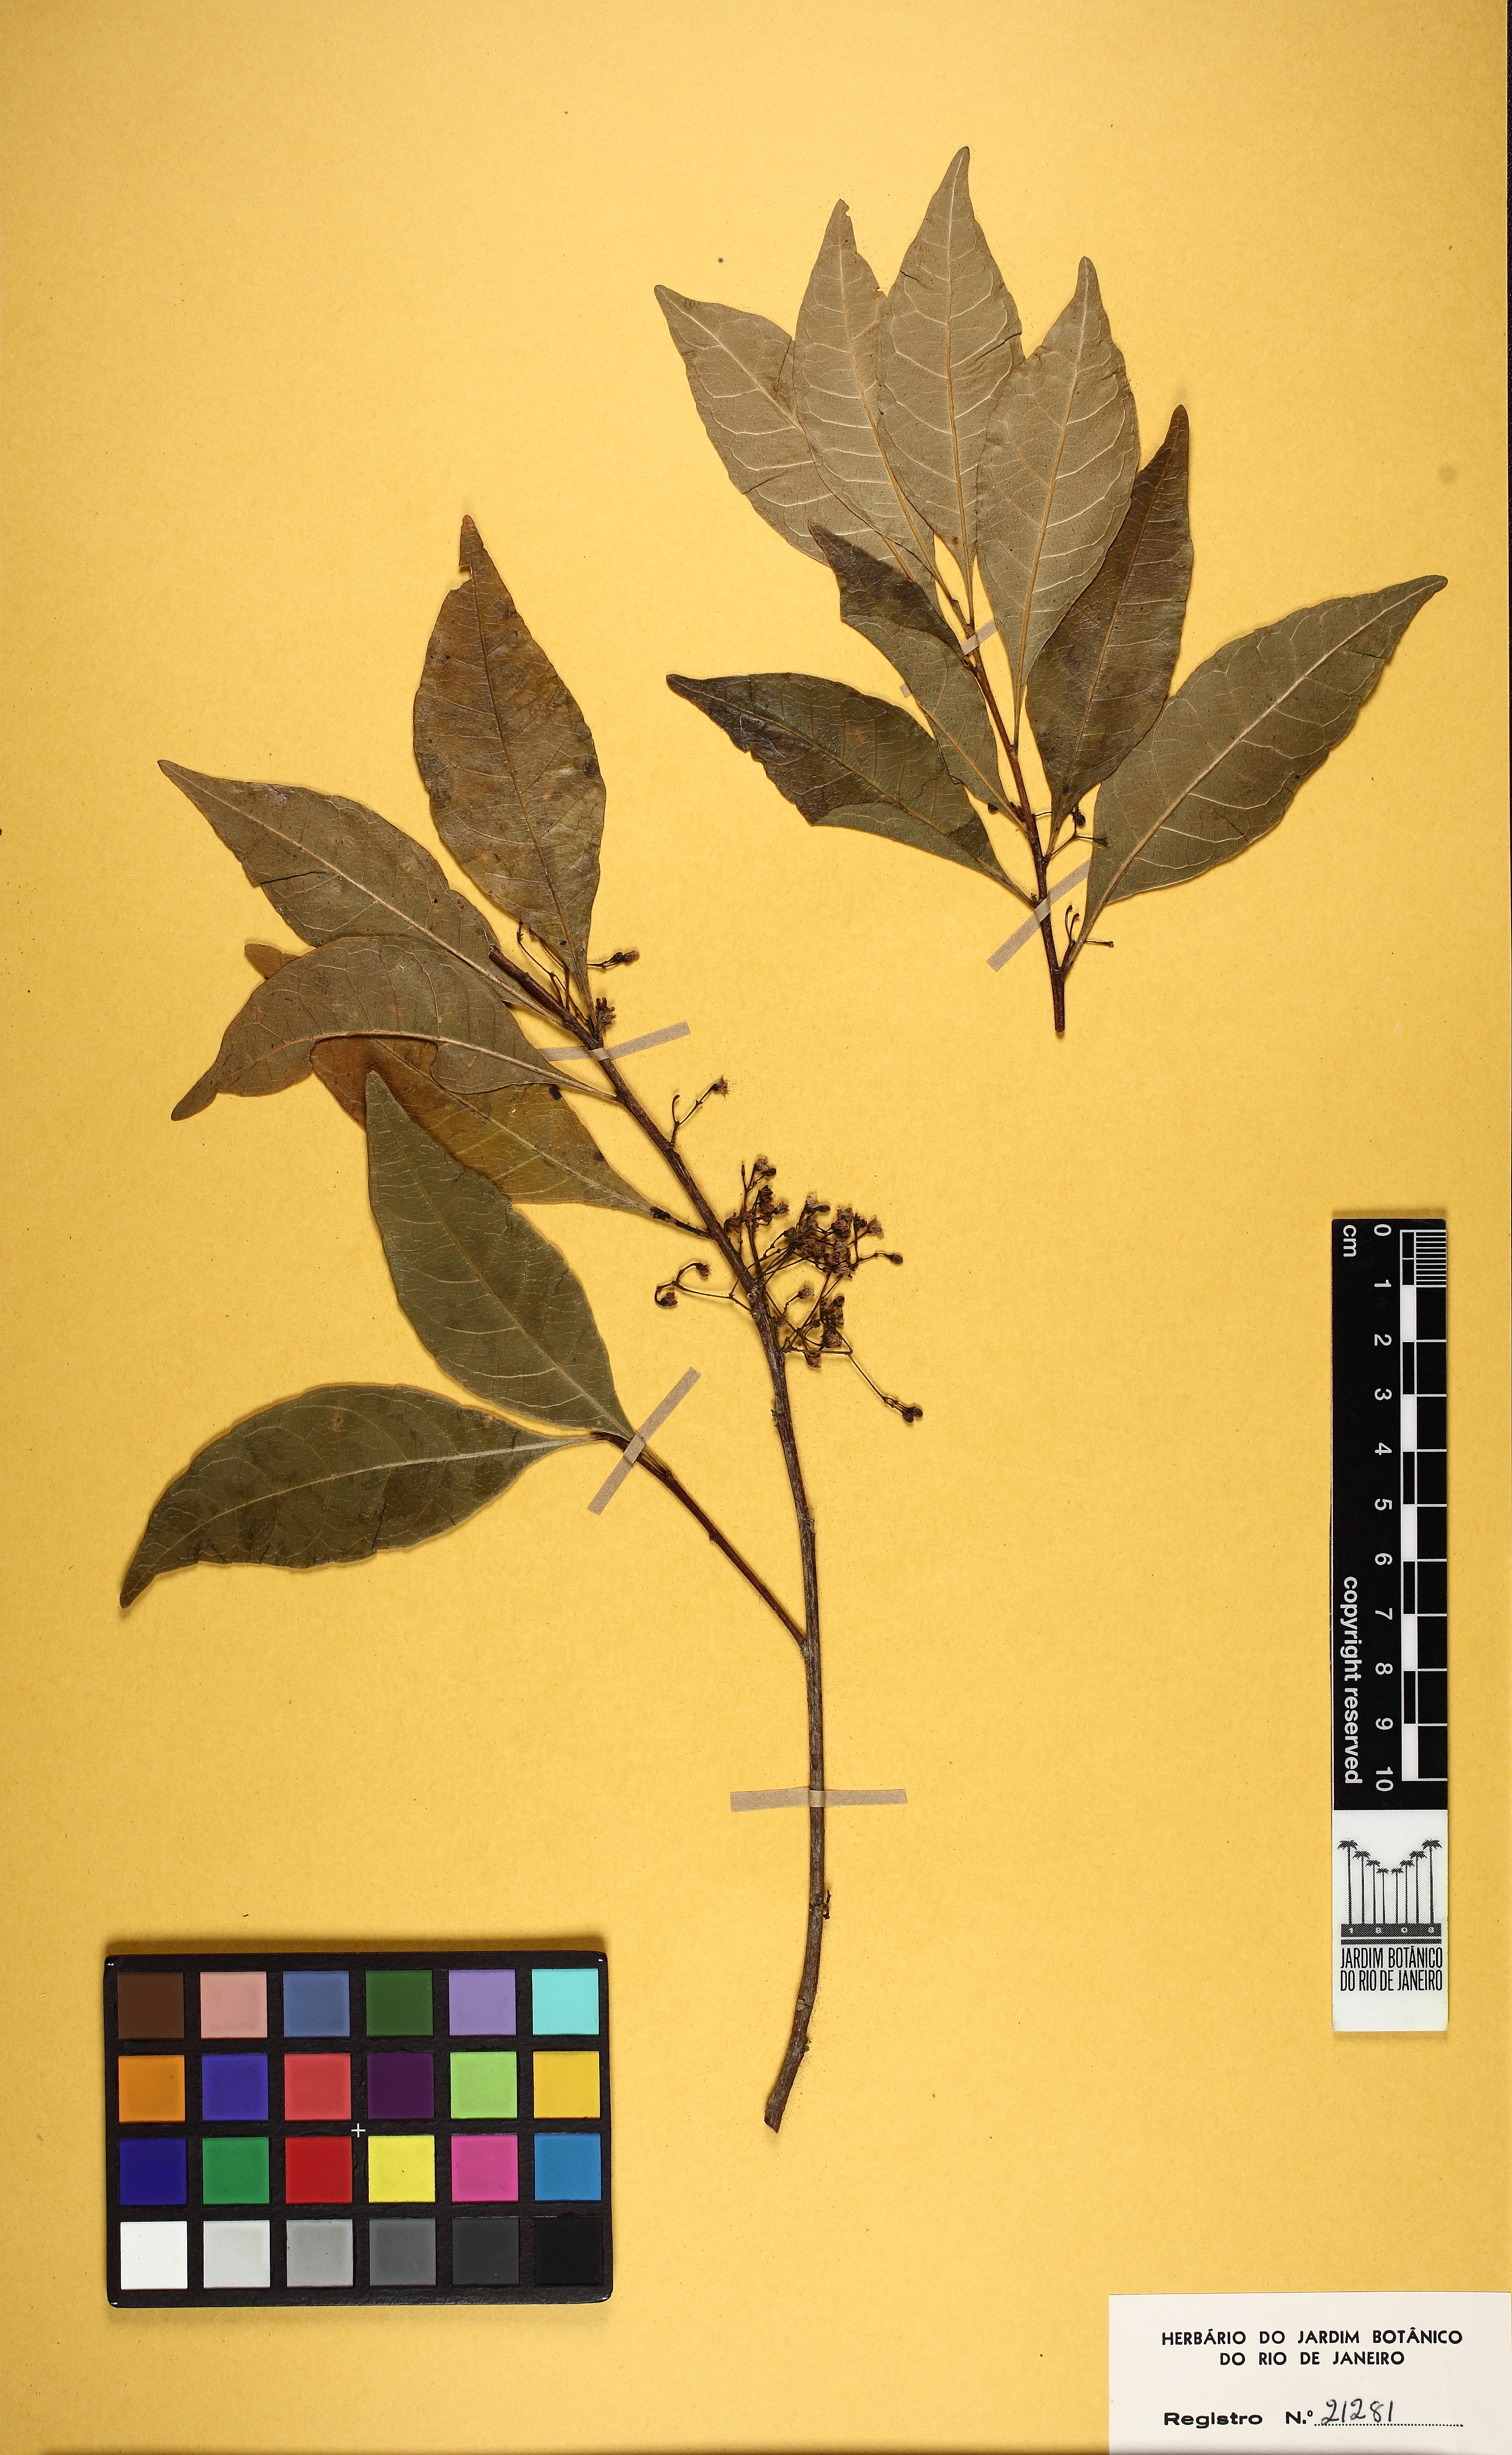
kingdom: Plantae
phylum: Tracheophyta
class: Magnoliopsida
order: Malpighiales
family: Violaceae
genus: Leonia
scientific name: Leonia cymosa
